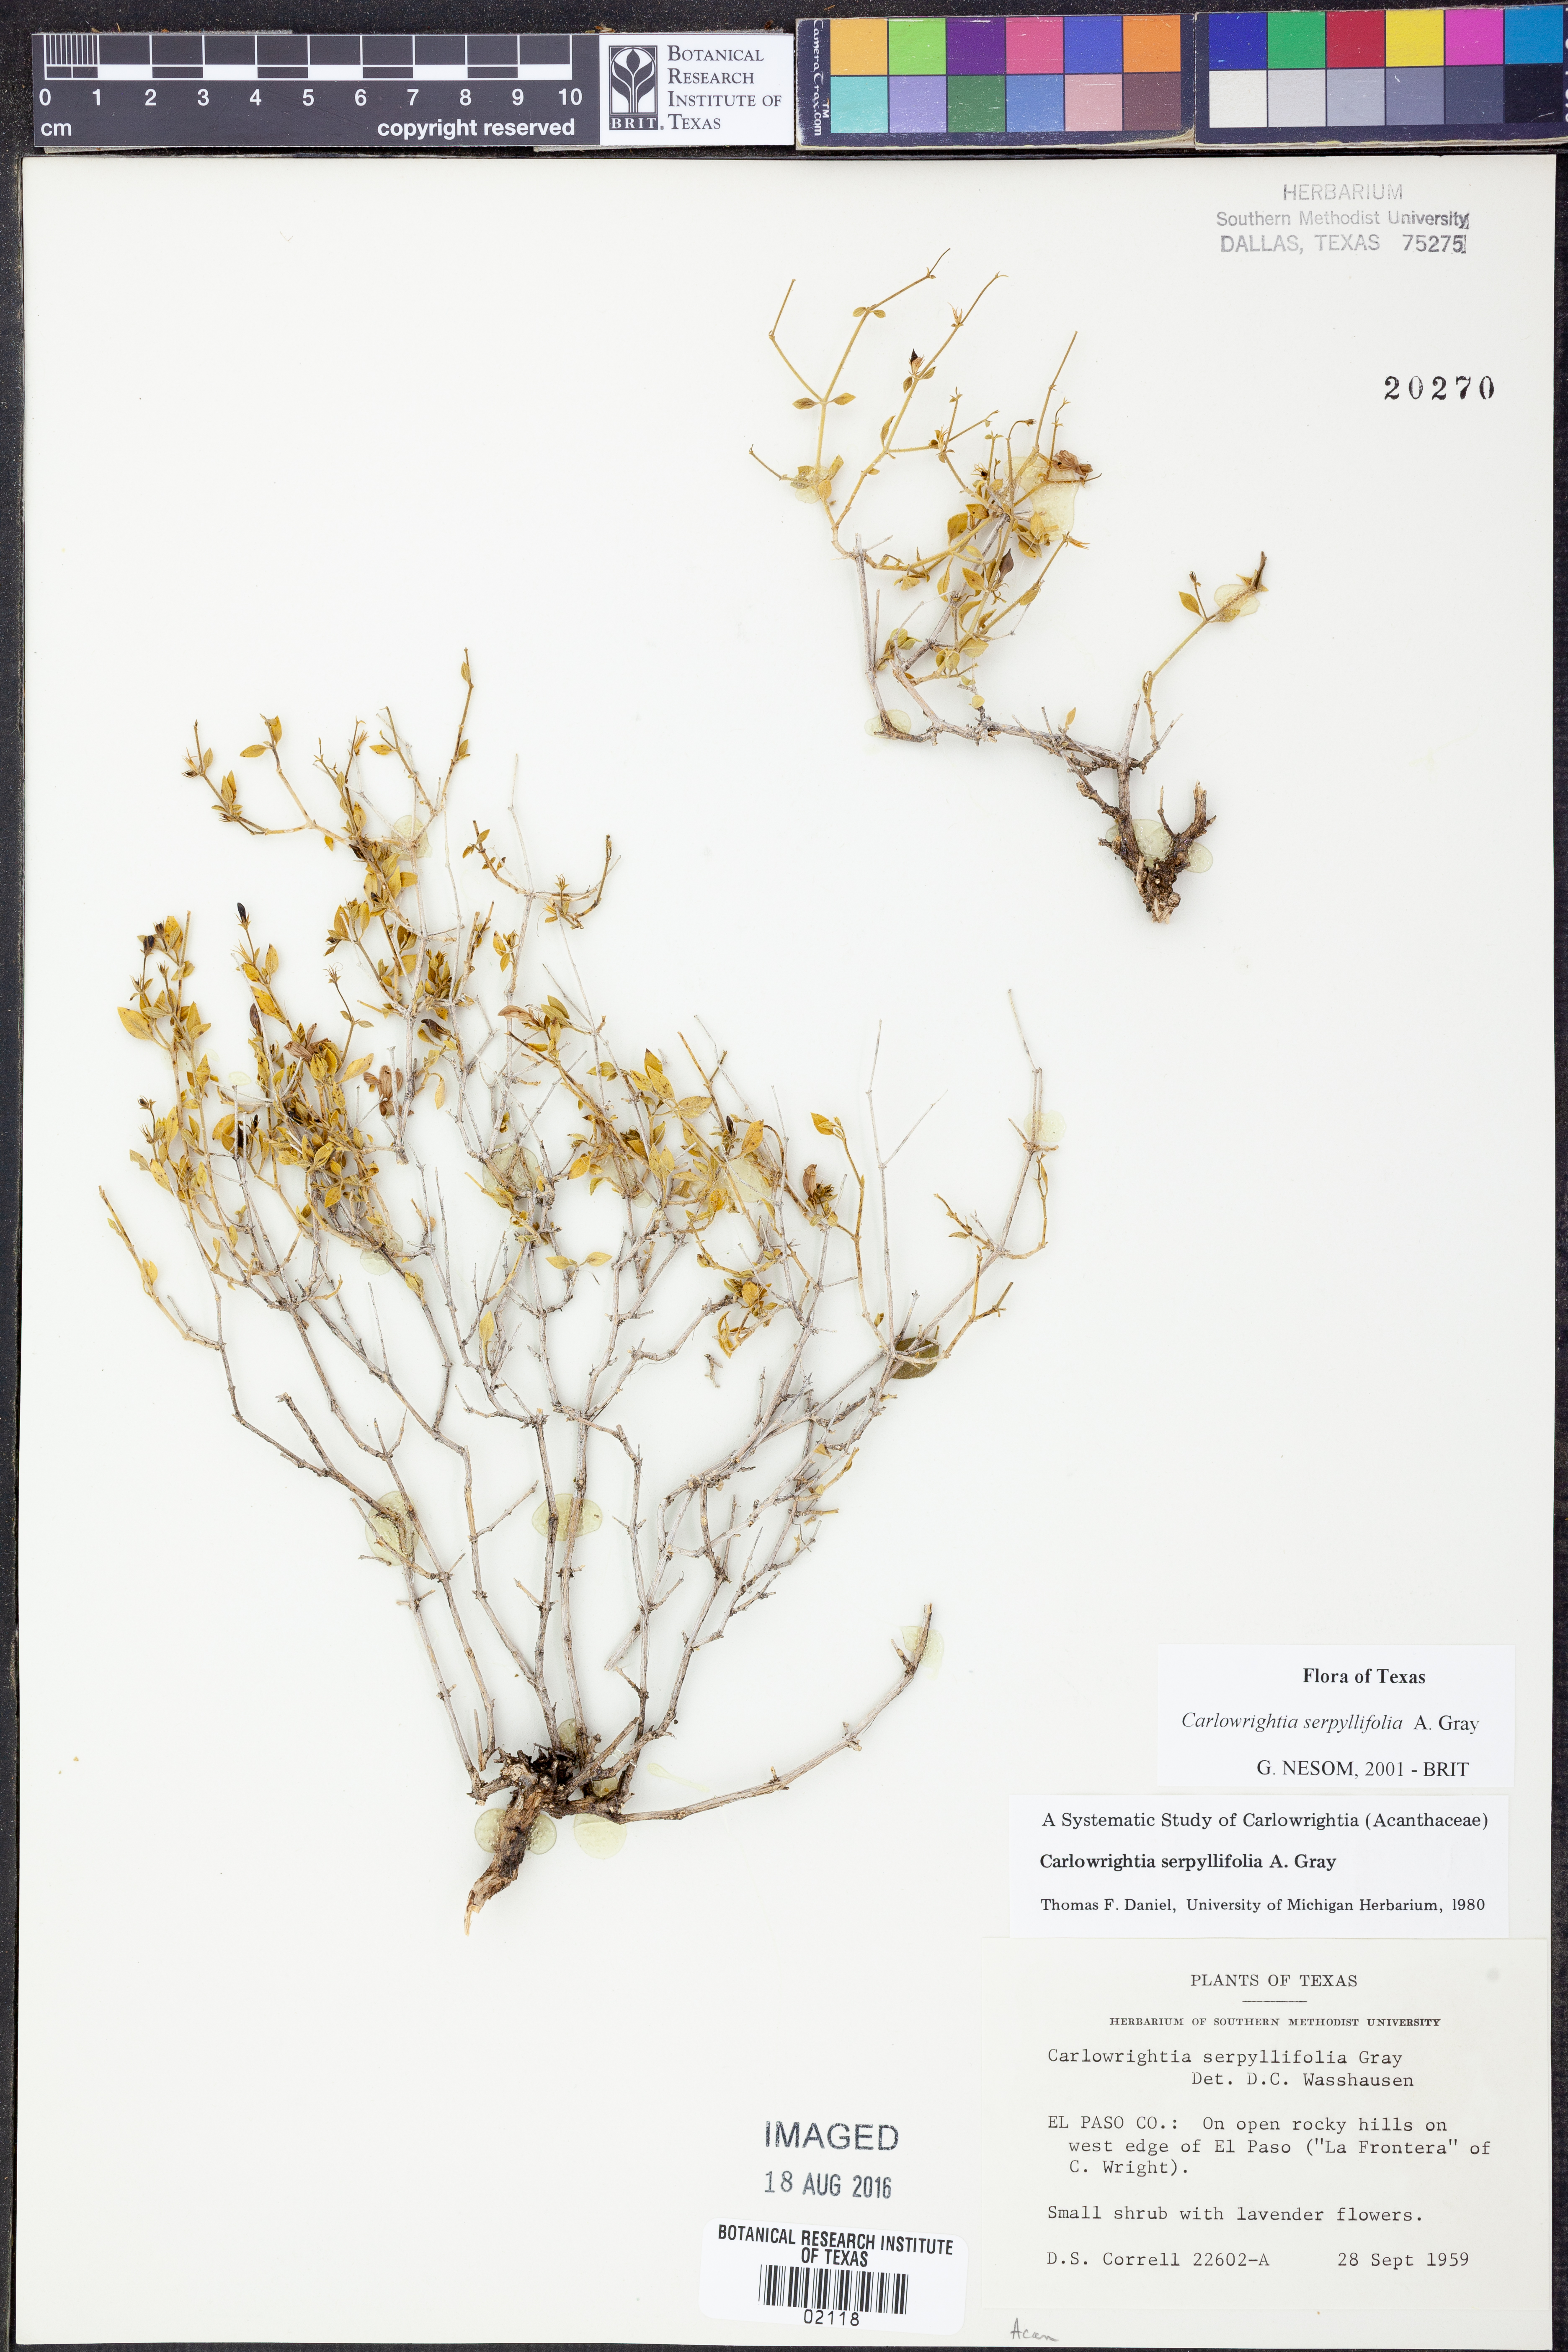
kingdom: Plantae
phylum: Tracheophyta
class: Magnoliopsida
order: Lamiales
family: Acanthaceae
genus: Carlowrightia
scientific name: Carlowrightia serpyllifolia
